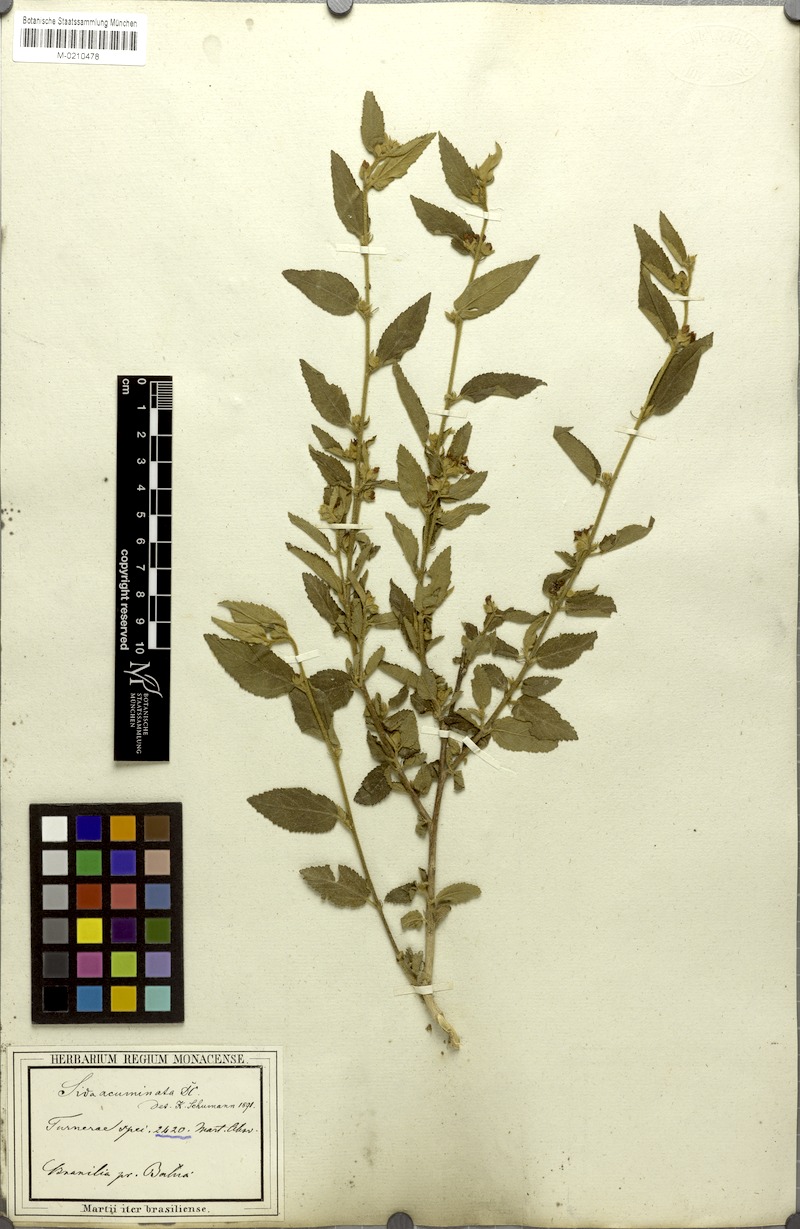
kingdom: Plantae
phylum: Tracheophyta
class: Magnoliopsida
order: Malvales
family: Malvaceae
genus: Sidastrum
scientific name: Sidastrum multiflorum
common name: Manyflower sandmallow
